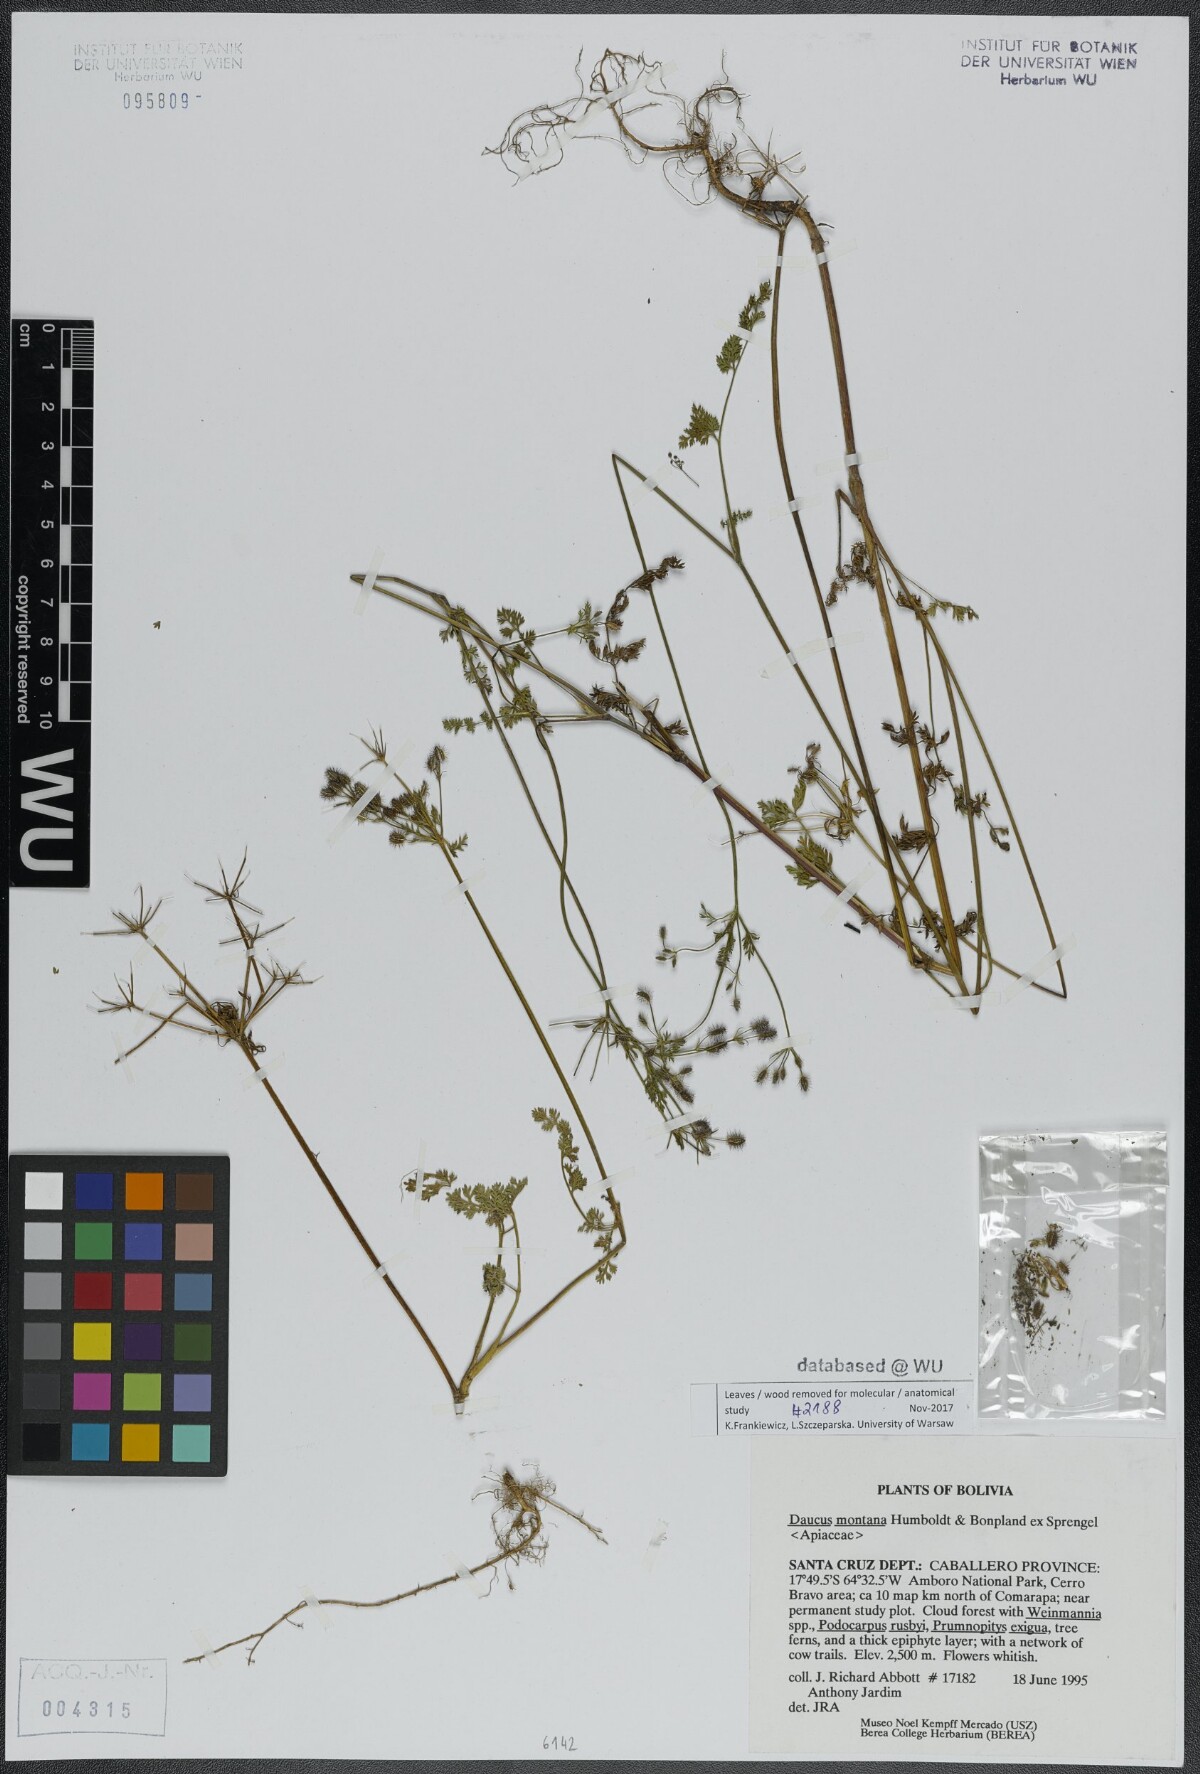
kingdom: Plantae
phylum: Tracheophyta
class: Magnoliopsida
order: Apiales
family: Apiaceae
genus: Daucus
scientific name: Daucus carota
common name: Wild carrot
